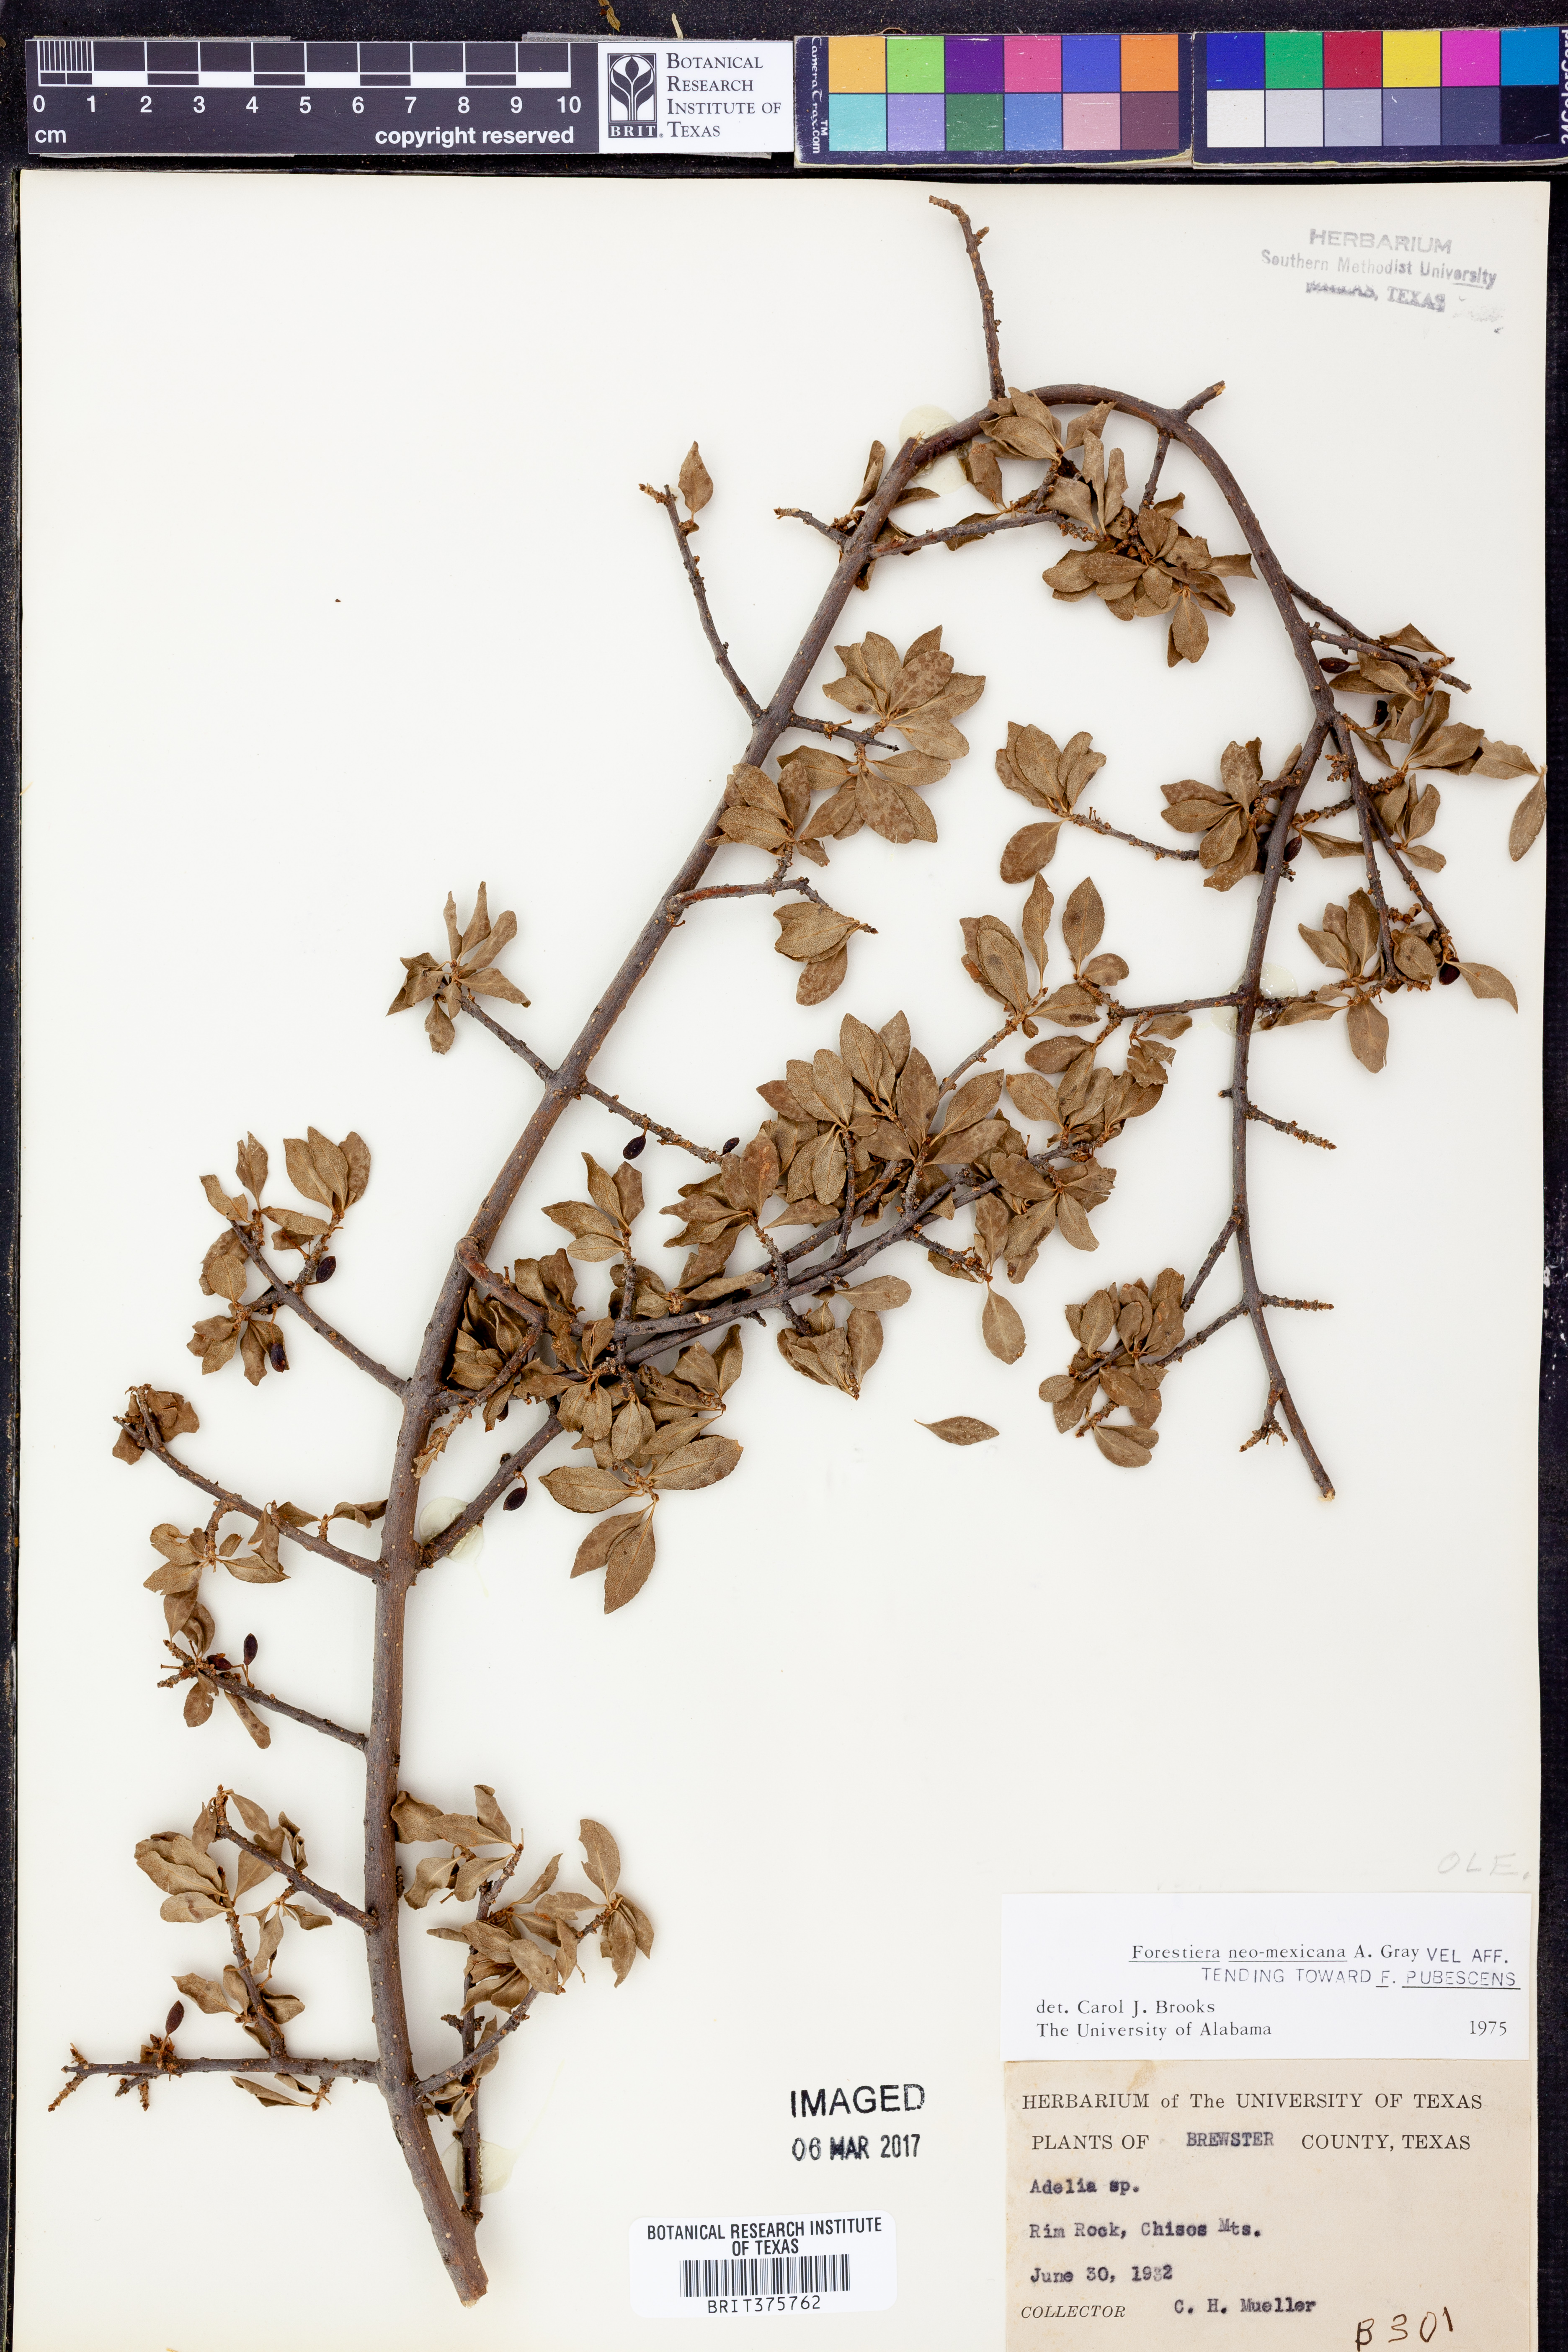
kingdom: Plantae
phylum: Tracheophyta
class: Magnoliopsida
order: Lamiales
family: Oleaceae
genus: Forestiera
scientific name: Forestiera pubescens
